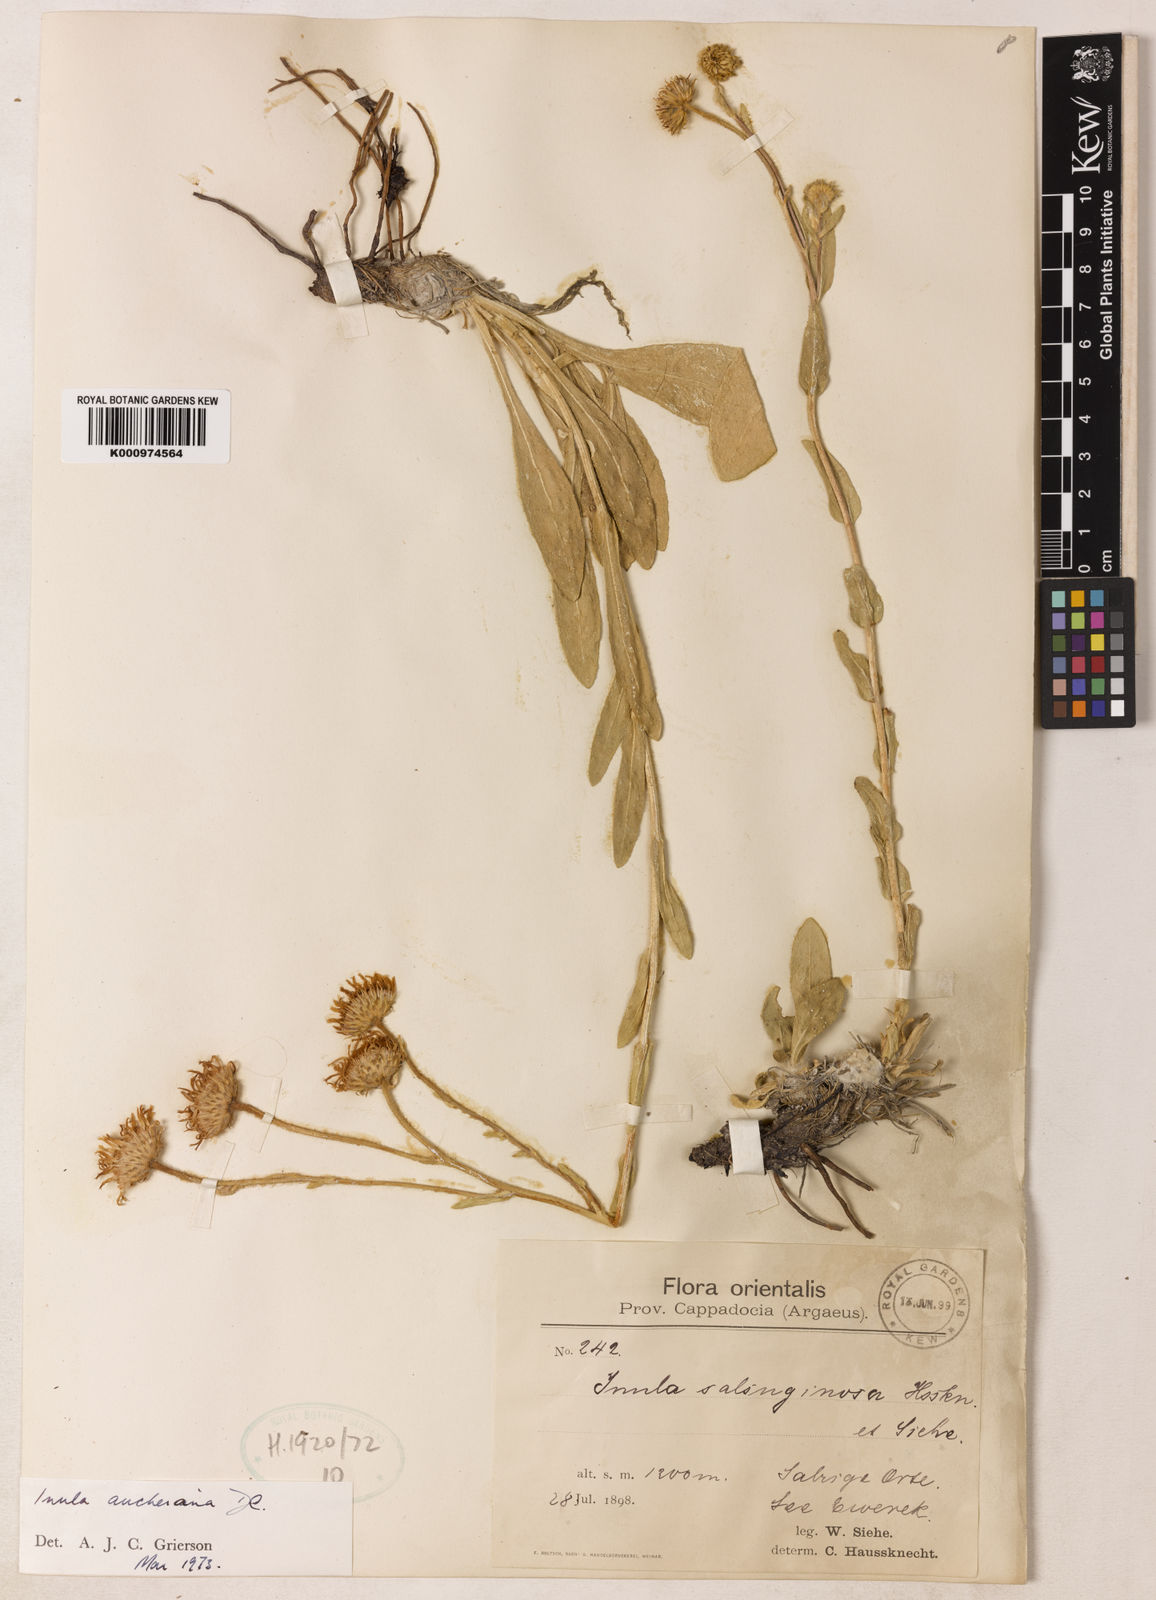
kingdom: Plantae
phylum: Tracheophyta
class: Magnoliopsida
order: Asterales
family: Asteraceae
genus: Inula
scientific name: Inula aucheriana
